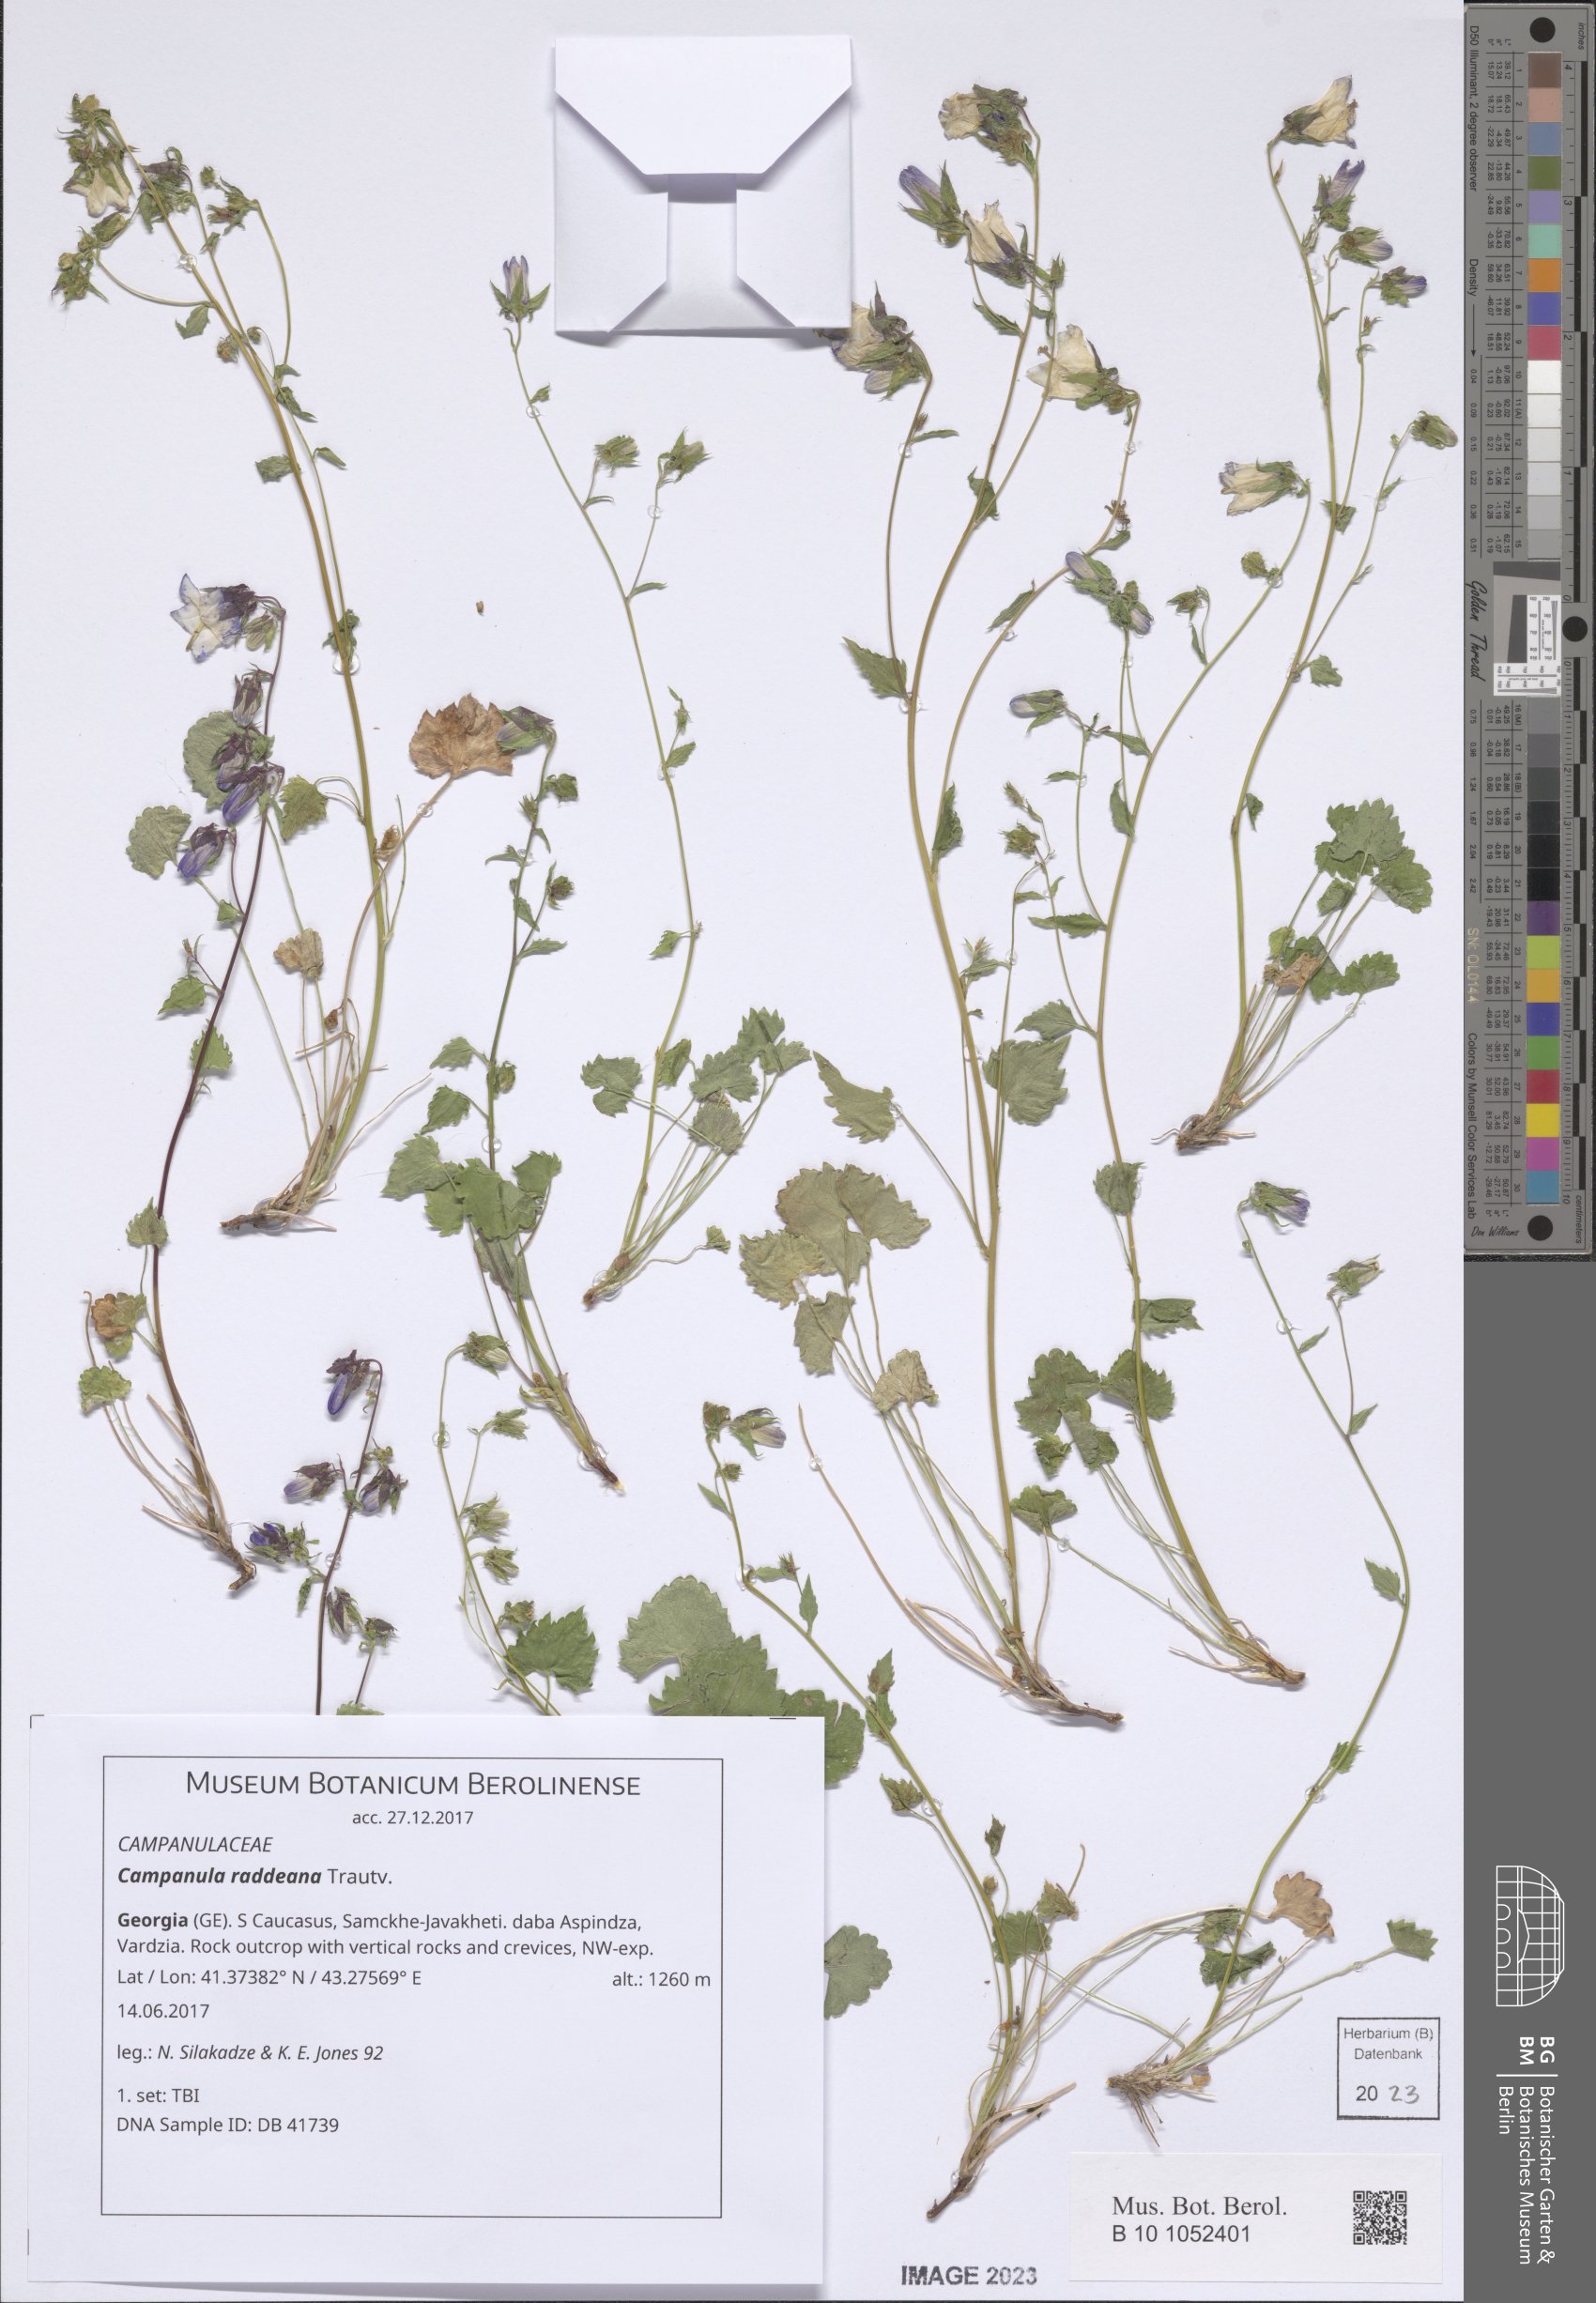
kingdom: Plantae
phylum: Tracheophyta
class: Magnoliopsida
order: Asterales
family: Campanulaceae
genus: Campanula
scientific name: Campanula raddeana
